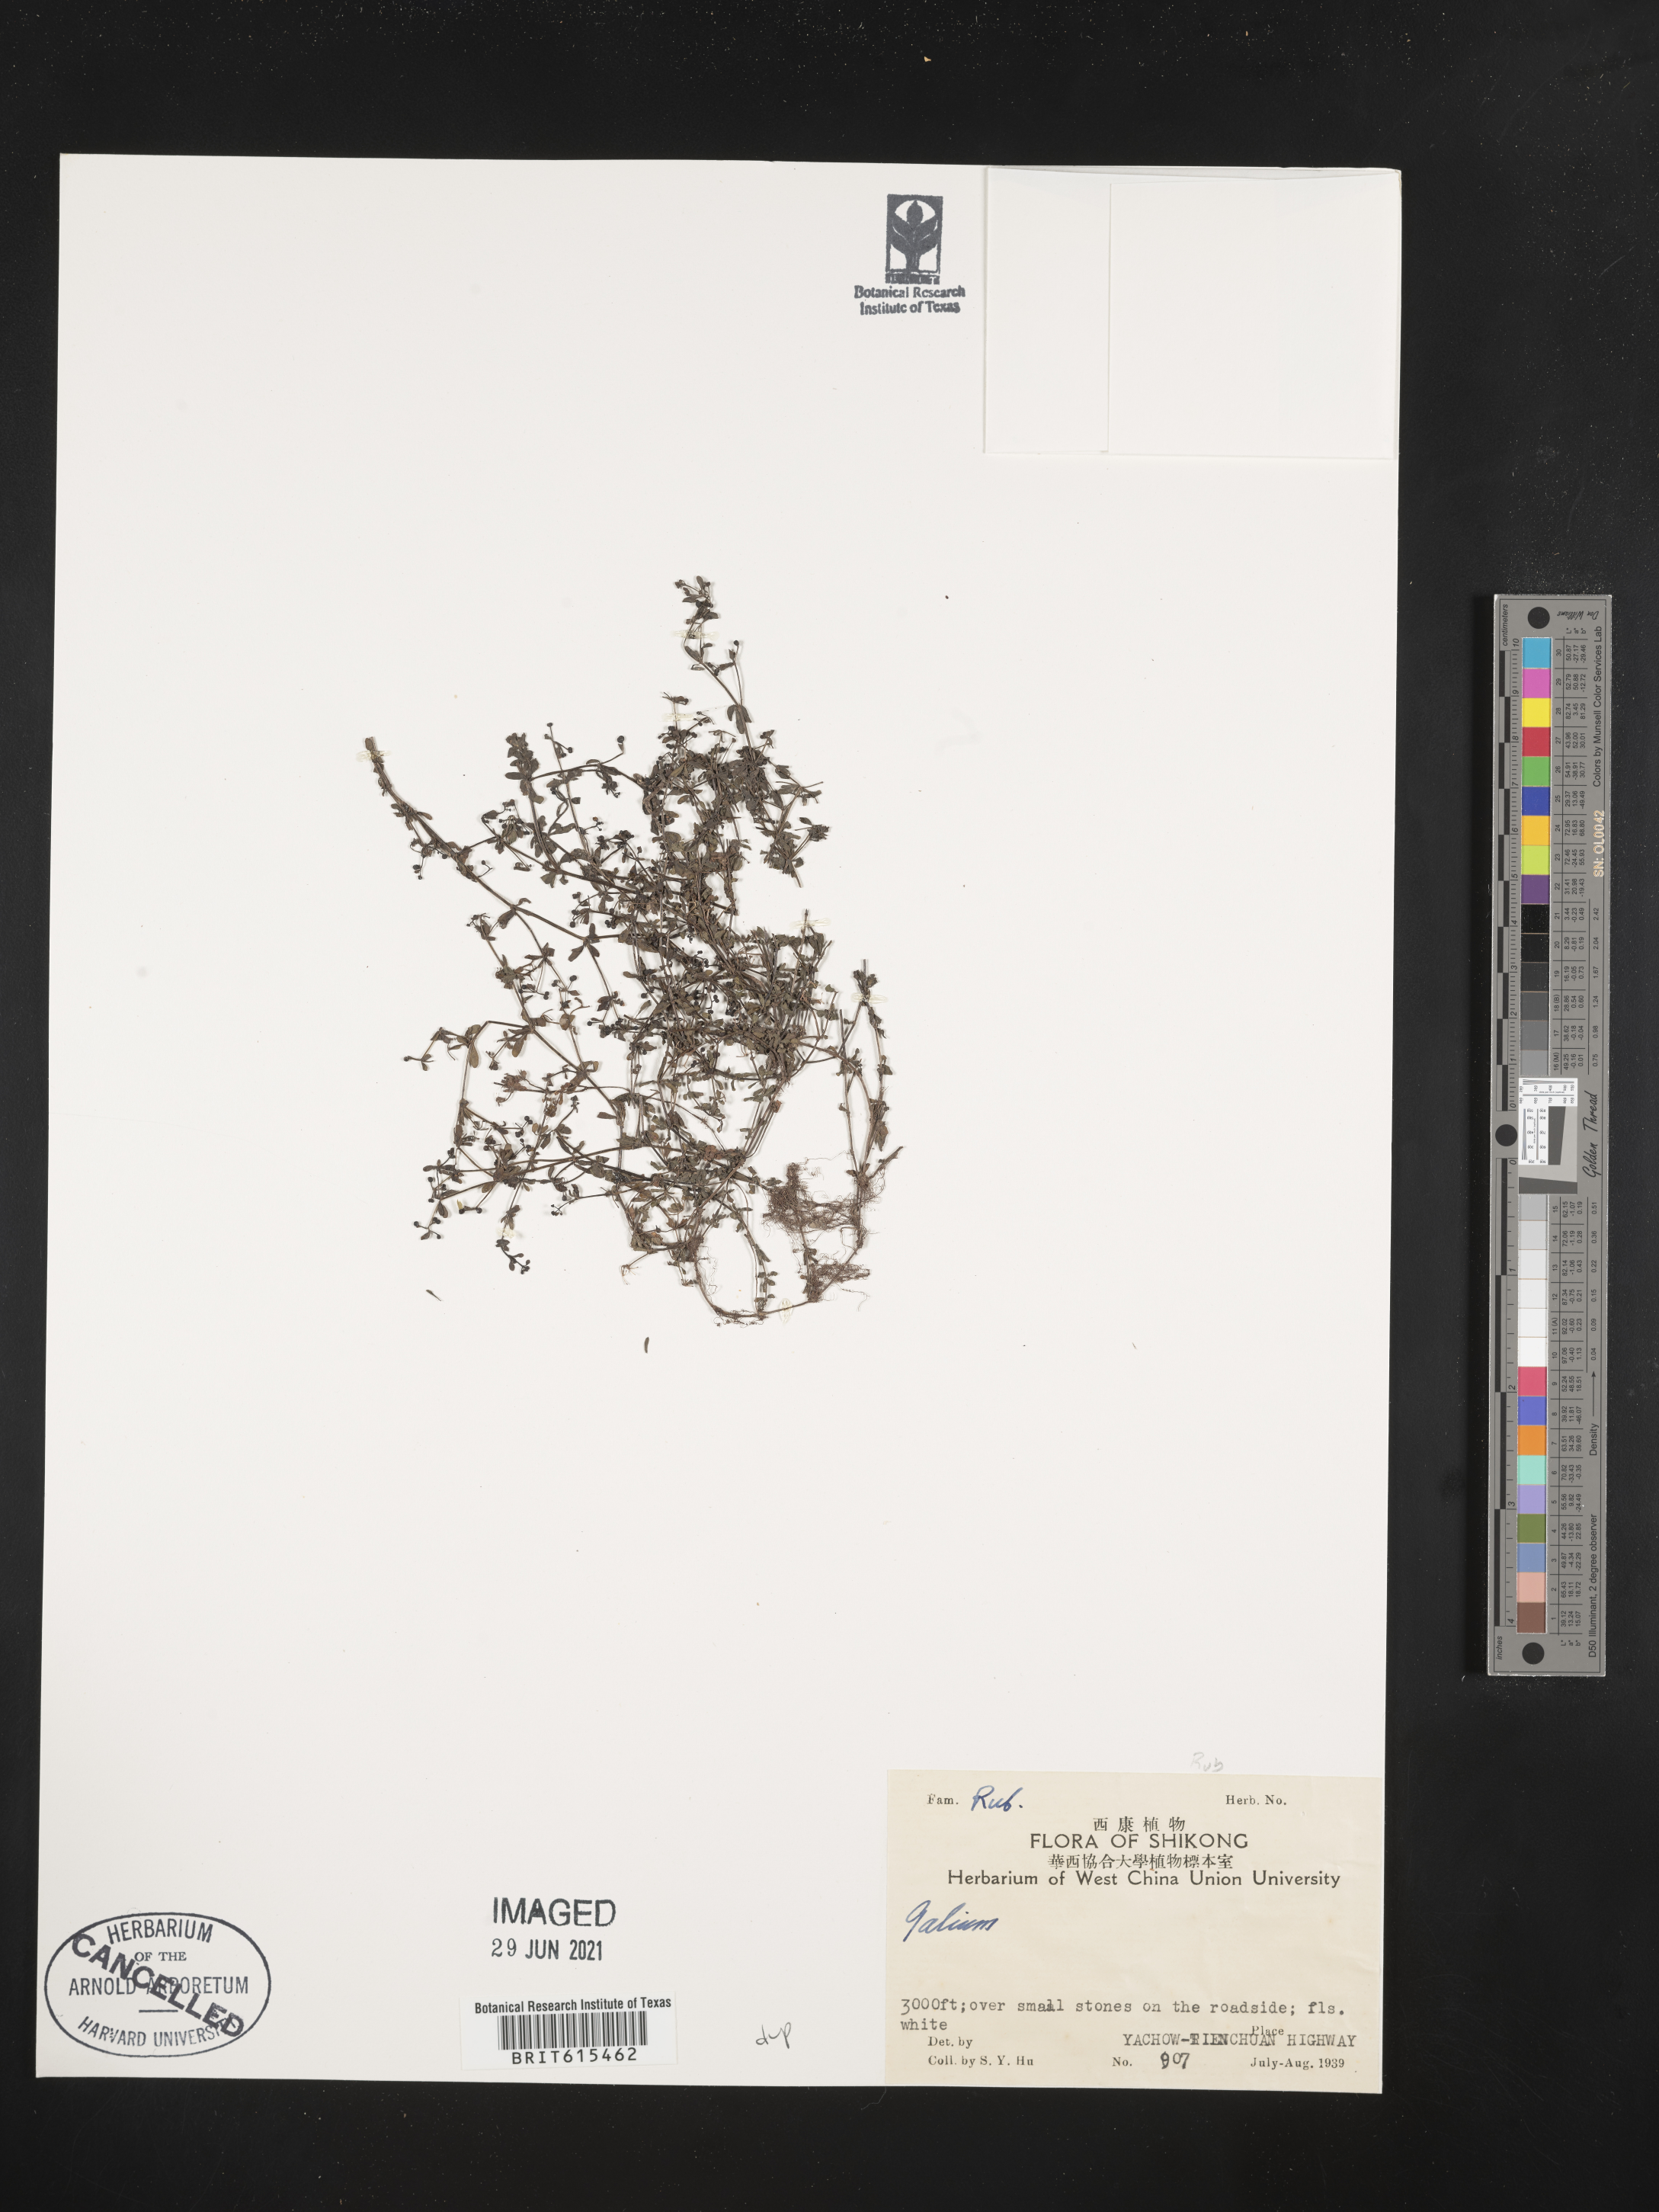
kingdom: Plantae
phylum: Tracheophyta
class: Magnoliopsida
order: Gentianales
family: Rubiaceae
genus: Galium
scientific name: Galium
